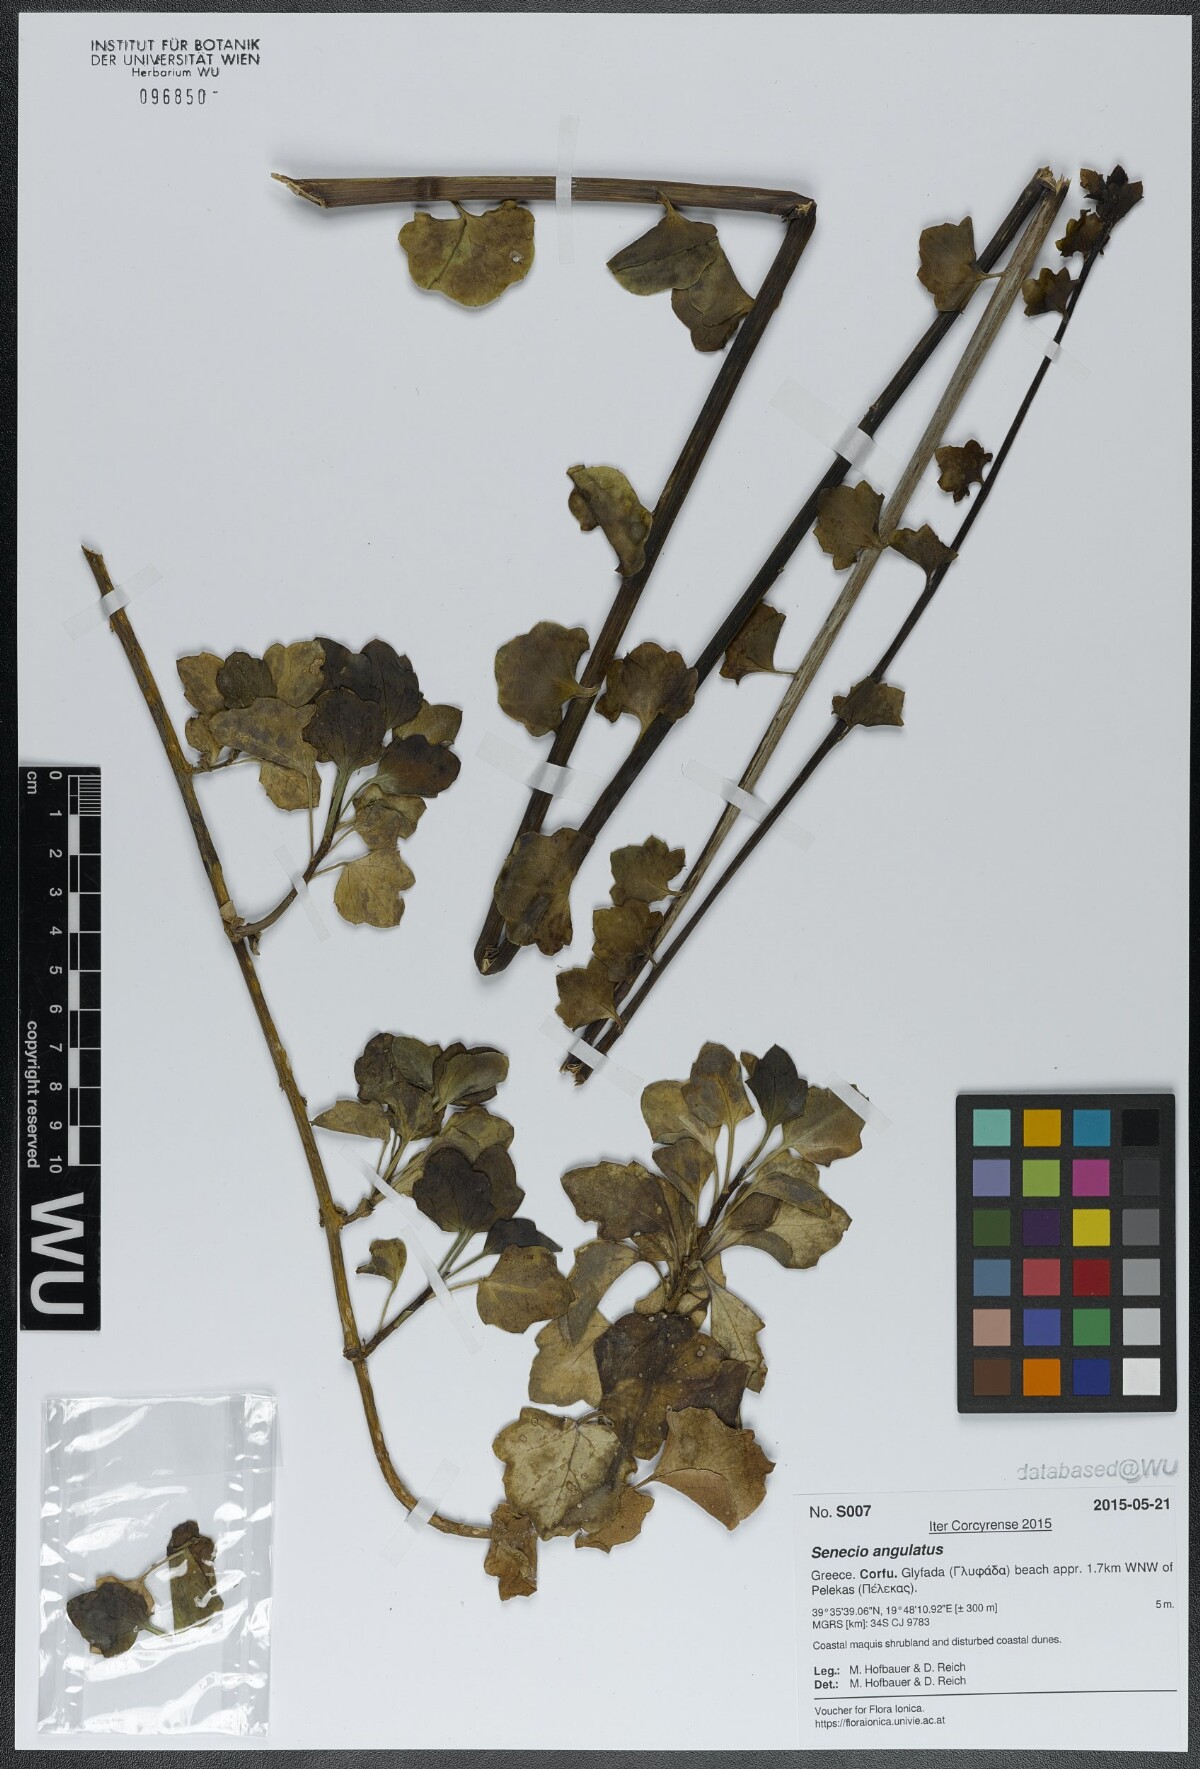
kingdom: Plantae
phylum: Tracheophyta
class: Magnoliopsida
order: Asterales
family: Asteraceae
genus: Senecio
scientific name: Senecio angulatus
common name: Climbing groundsel
